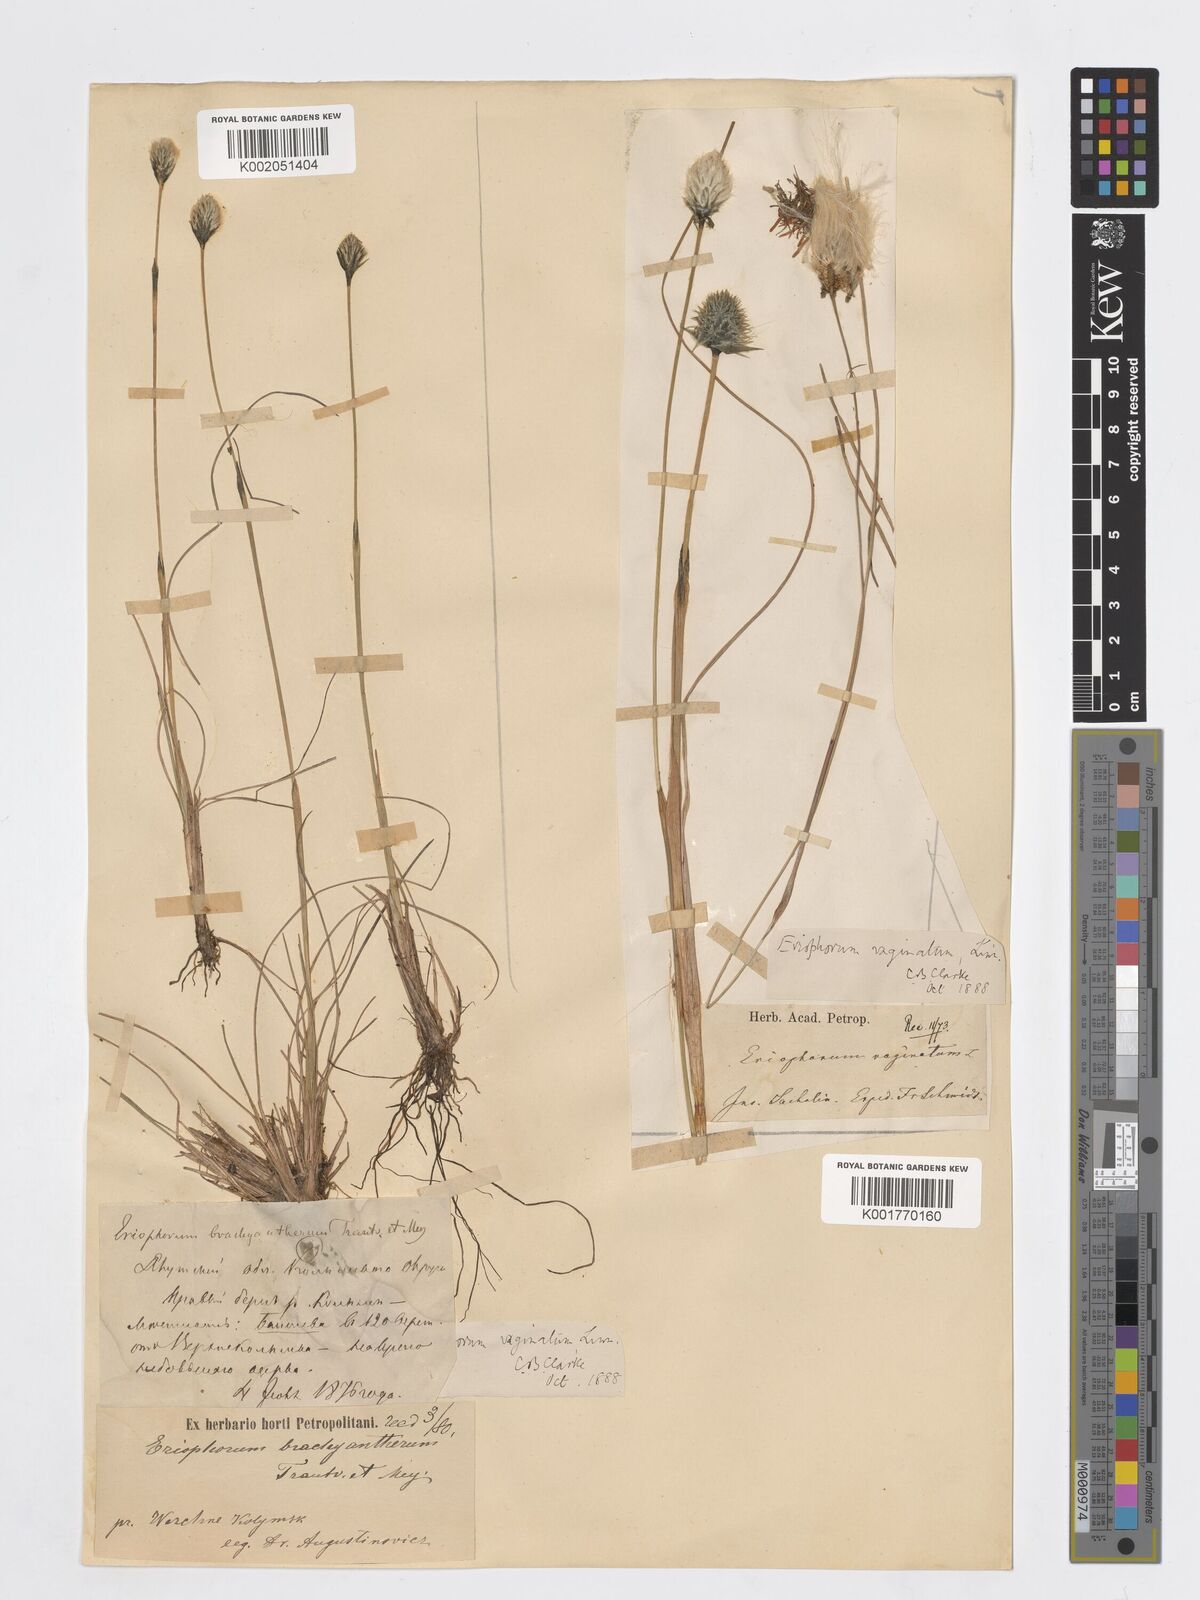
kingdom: Plantae
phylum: Tracheophyta
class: Liliopsida
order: Poales
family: Cyperaceae
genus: Eriophorum
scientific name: Eriophorum vaginatum
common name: Hare's-tail cottongrass
